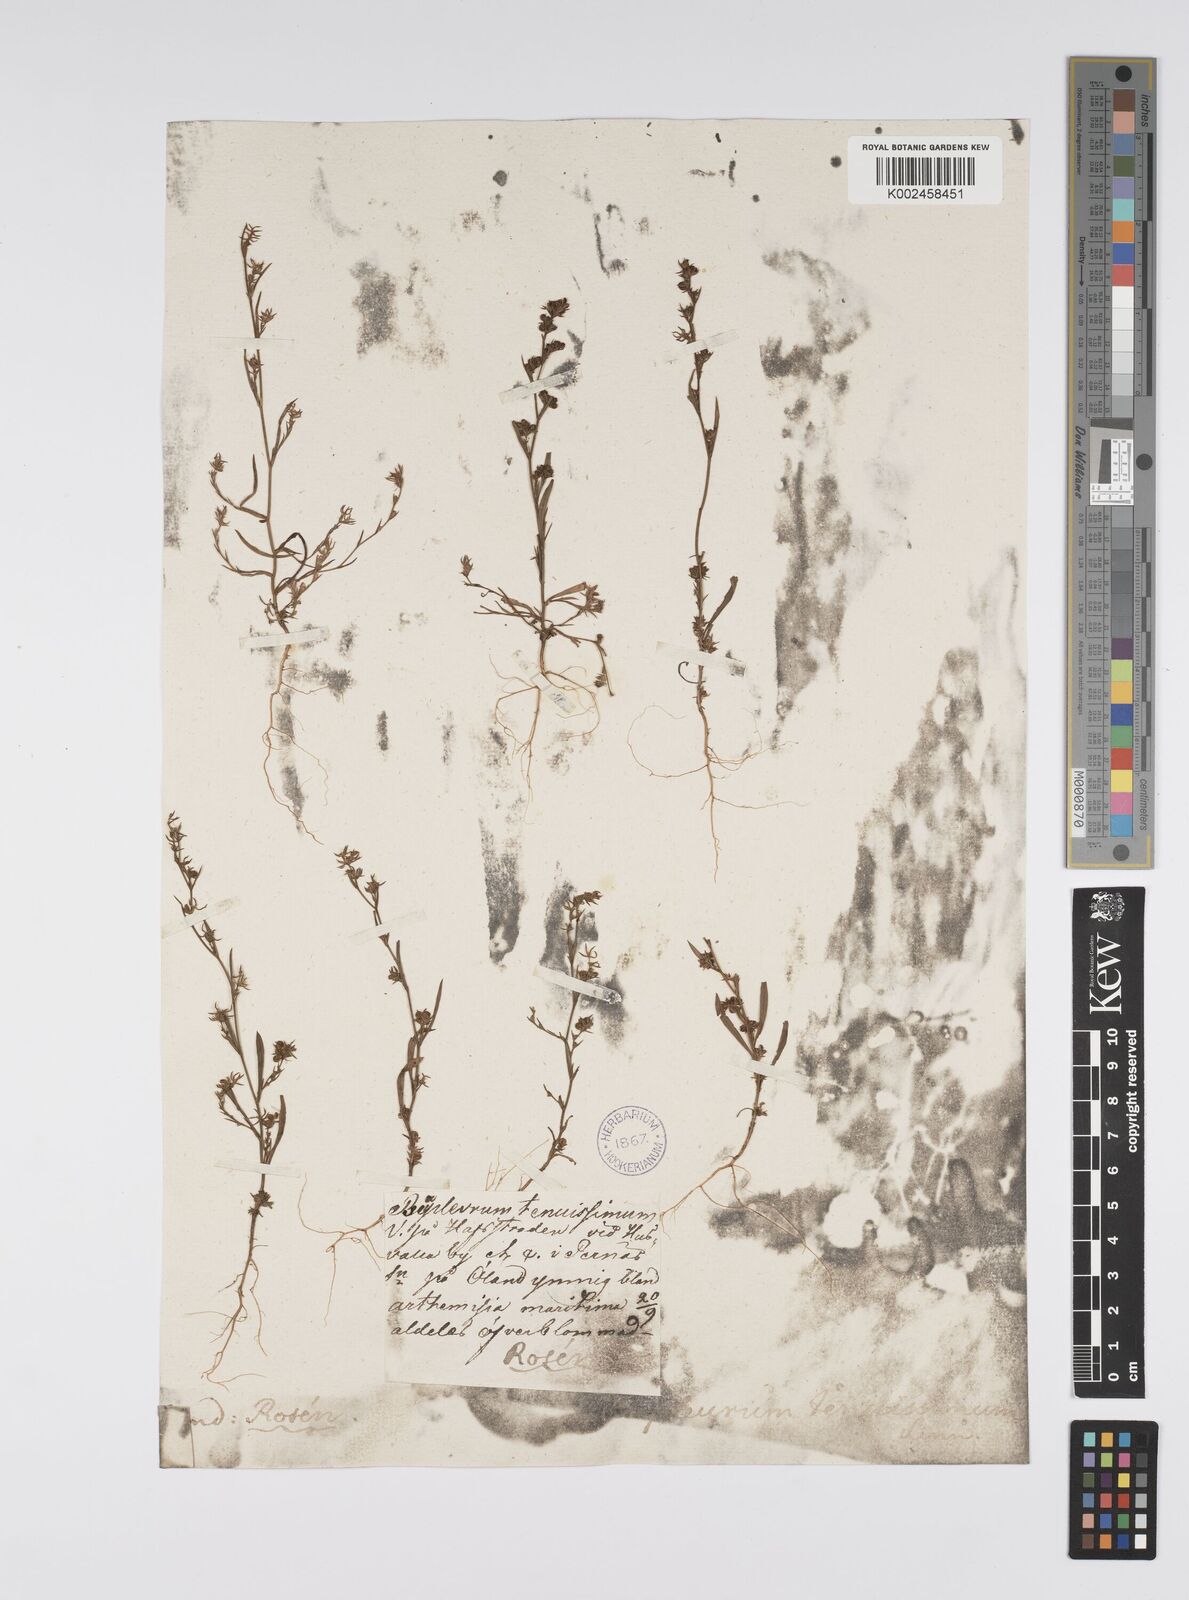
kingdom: Plantae
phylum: Tracheophyta
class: Magnoliopsida
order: Apiales
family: Apiaceae
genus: Bupleurum
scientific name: Bupleurum tenuissimum
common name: Slender hare's-ear
